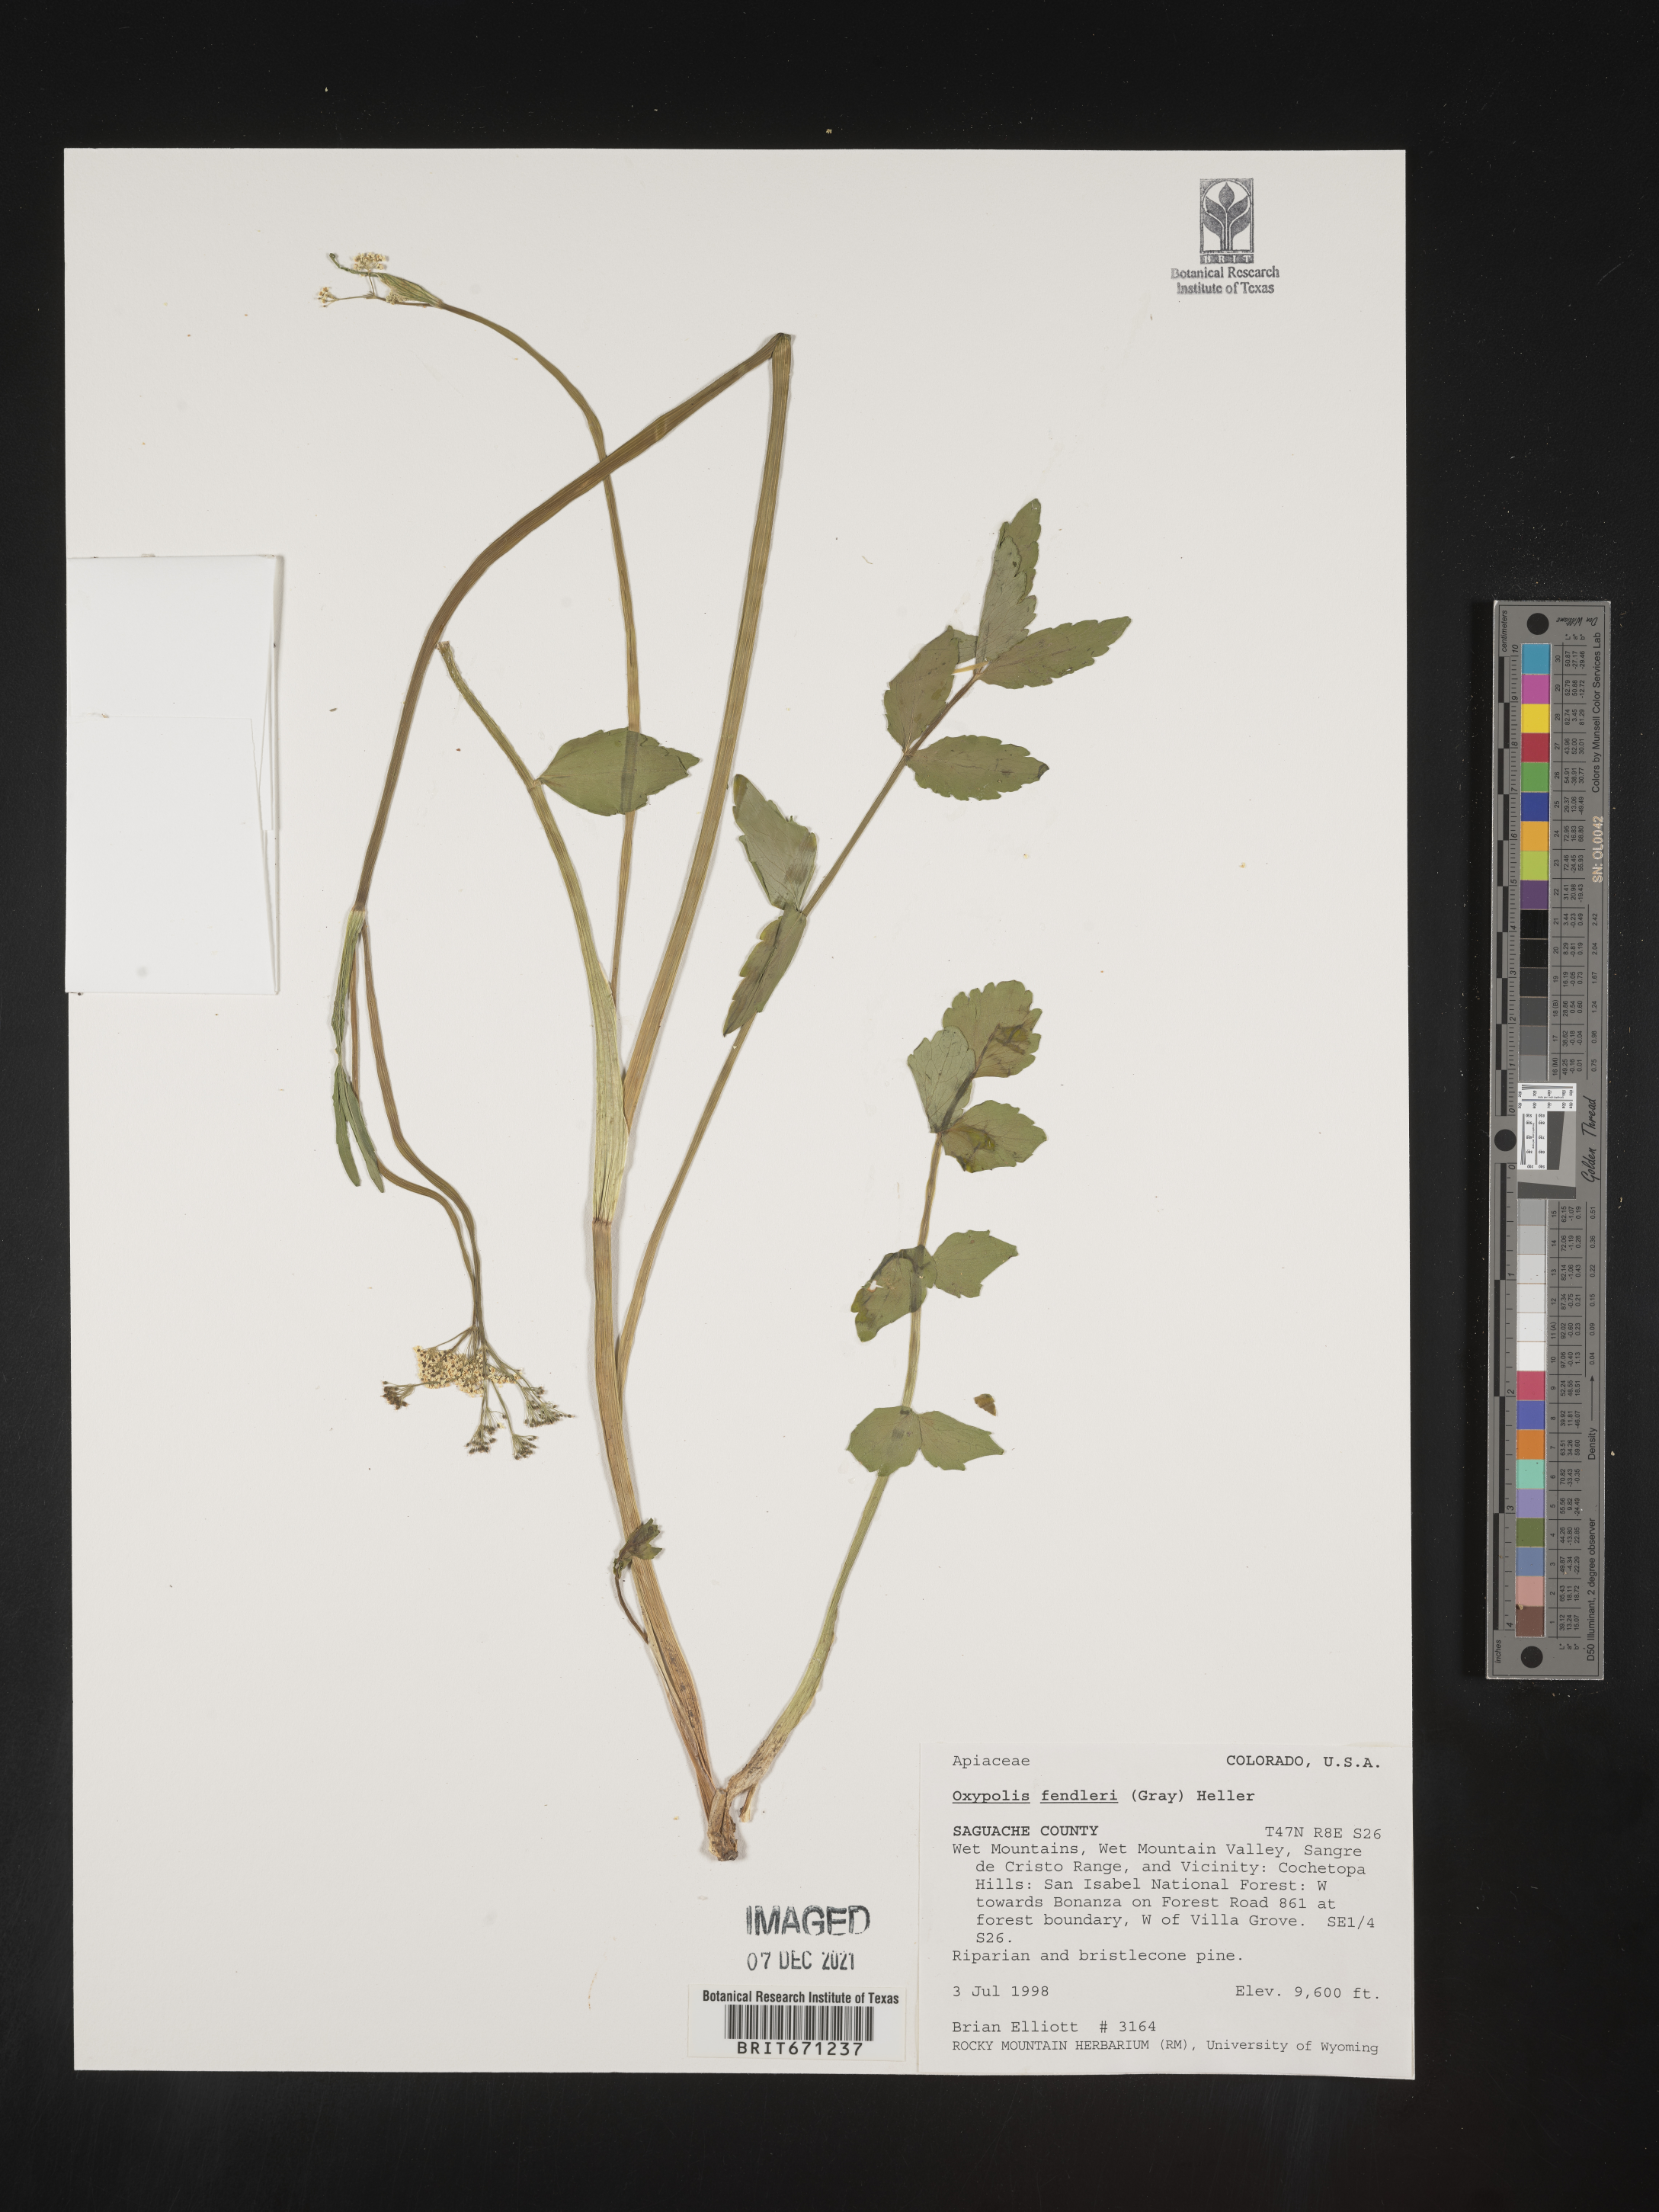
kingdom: Plantae
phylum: Tracheophyta
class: Magnoliopsida
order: Apiales
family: Apiaceae
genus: Oxypolis
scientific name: Oxypolis fendleri
